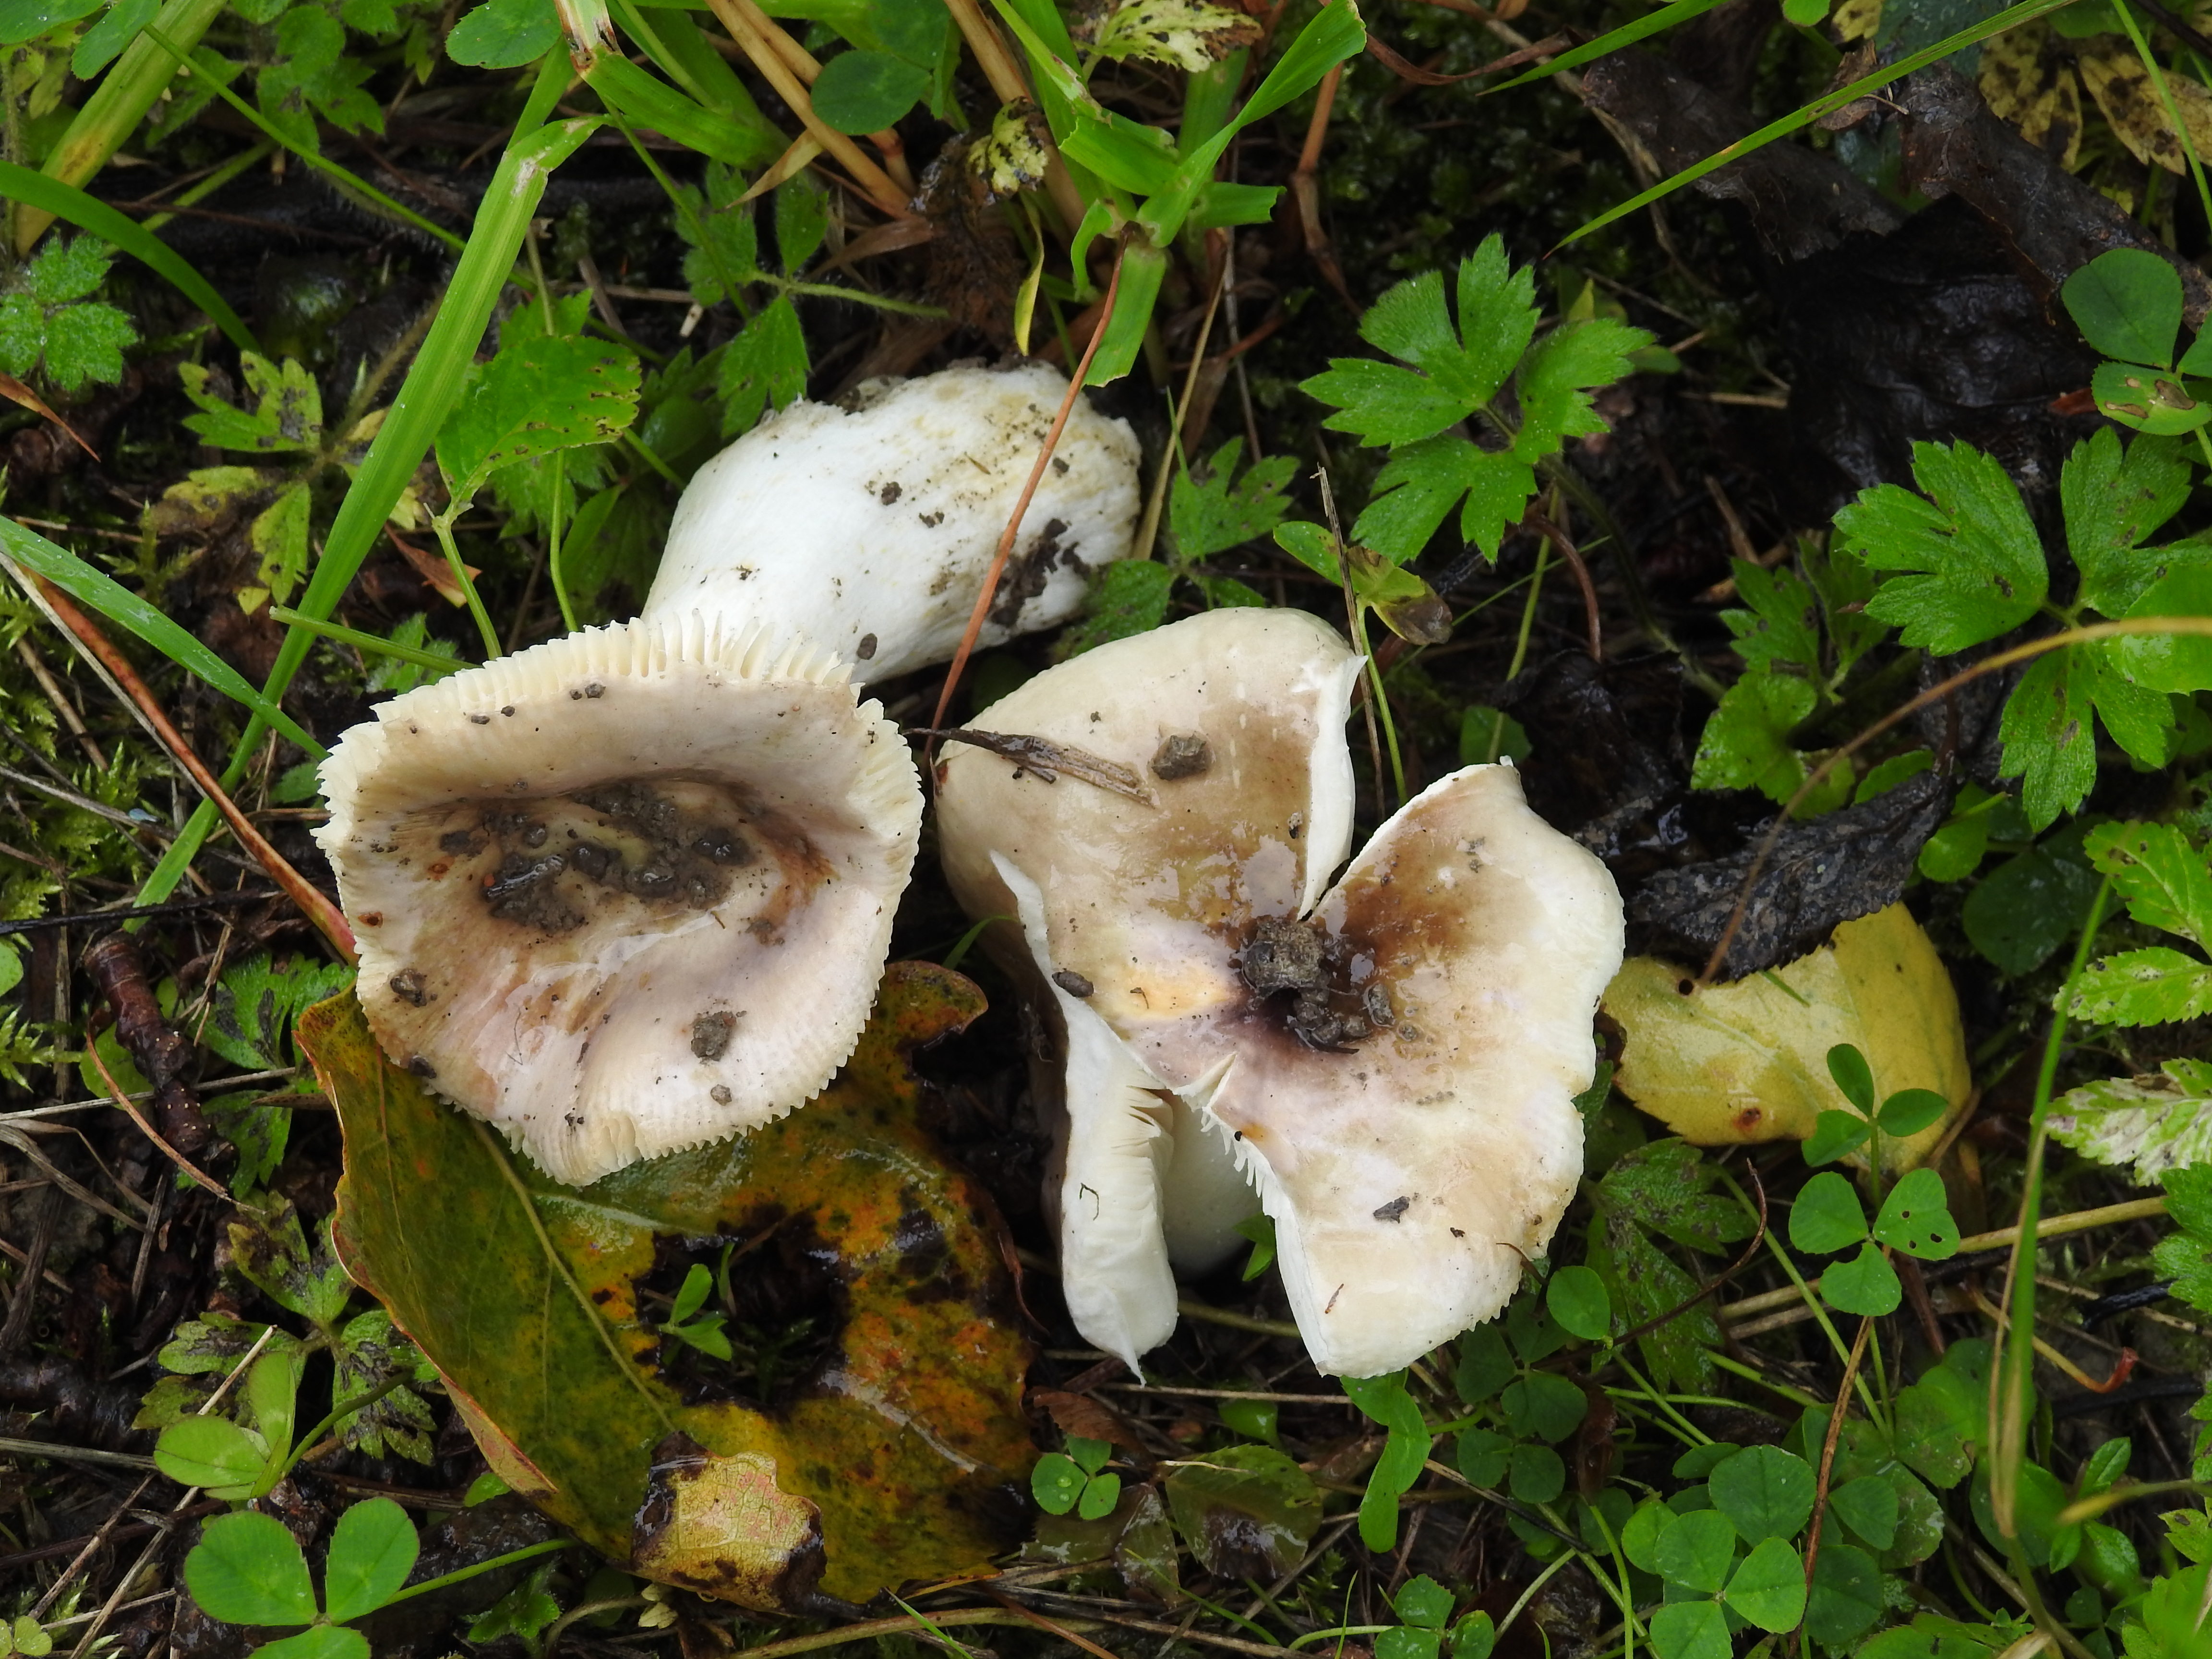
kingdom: Fungi
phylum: Basidiomycota
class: Agaricomycetes
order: Russulales
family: Russulaceae
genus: Russula
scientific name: Russula pelargonia
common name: Pelargonium brittlegill
